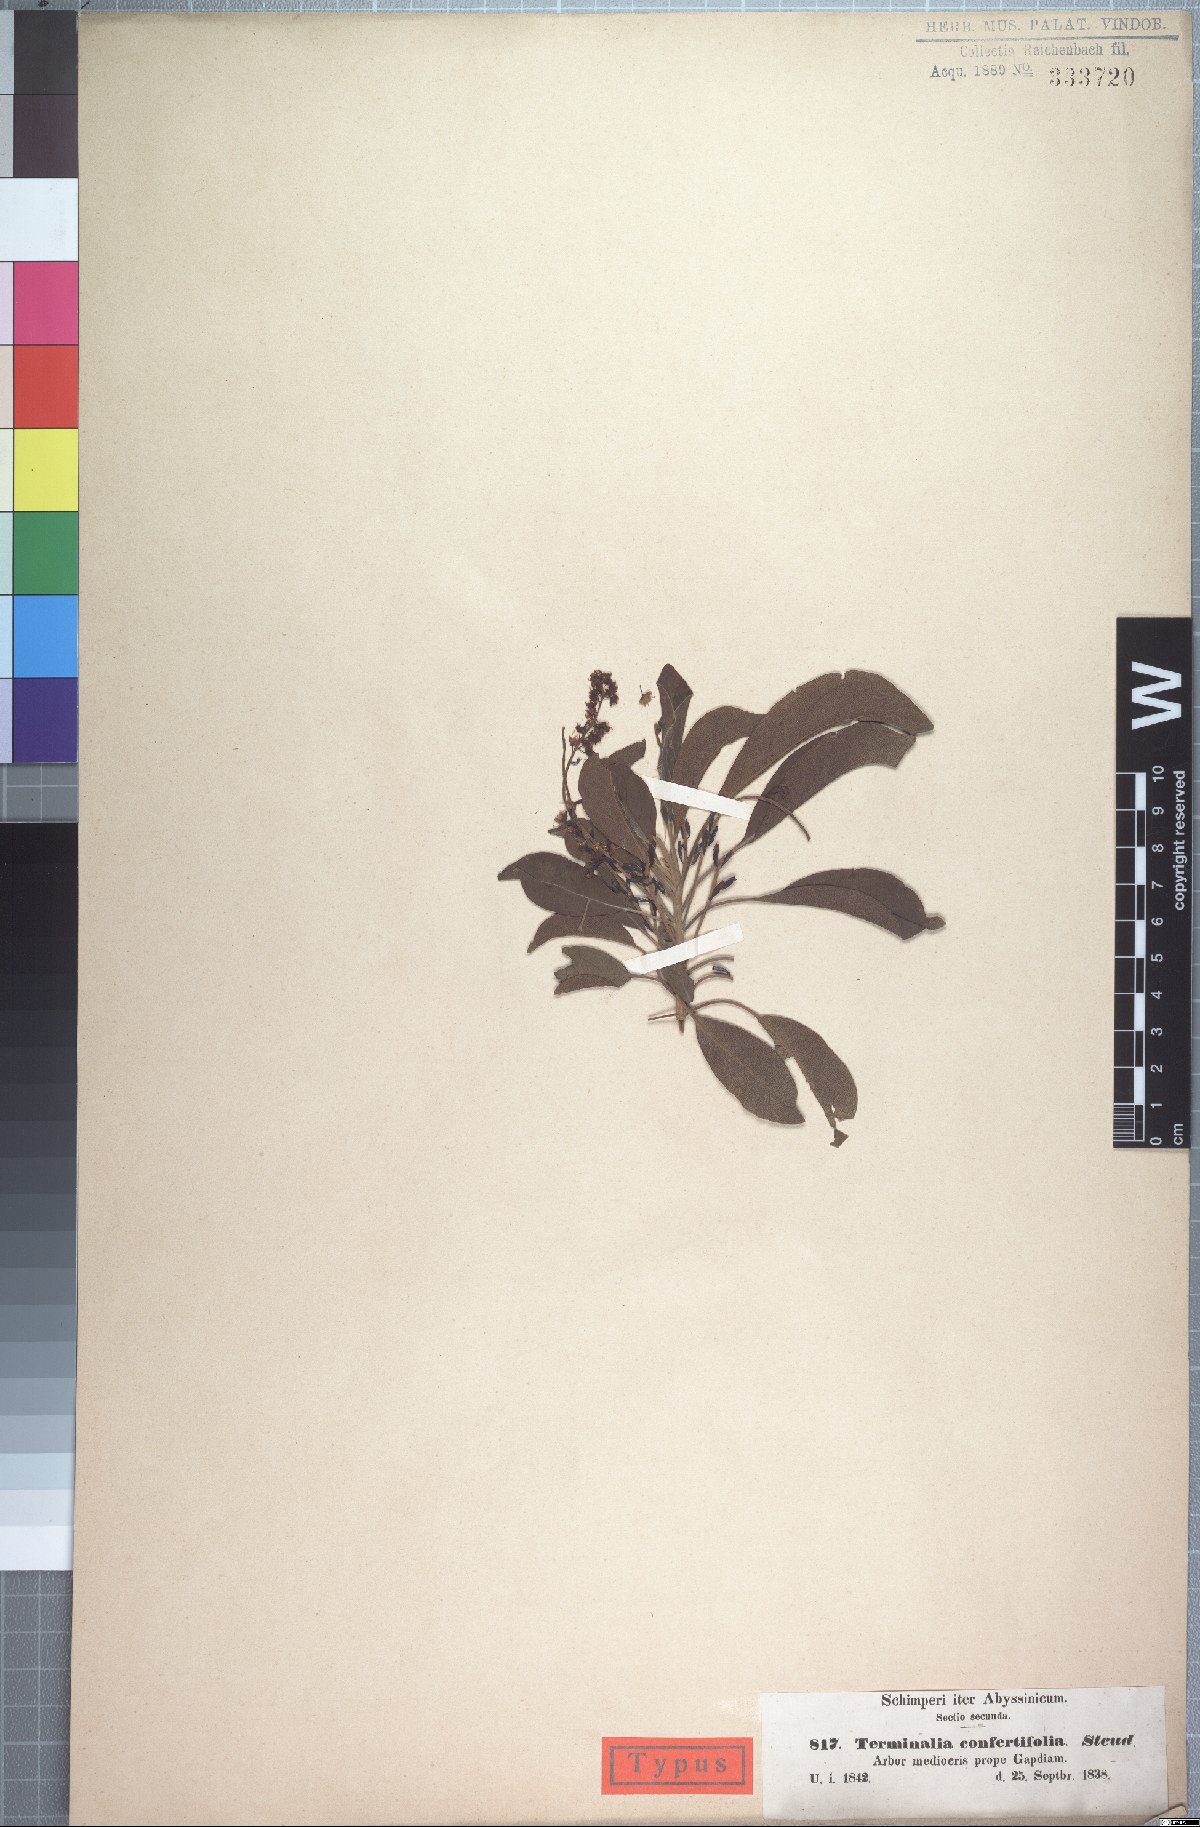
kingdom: Plantae
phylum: Tracheophyta
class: Magnoliopsida
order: Myrtales
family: Combretaceae
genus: Terminalia
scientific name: Terminalia brownii
